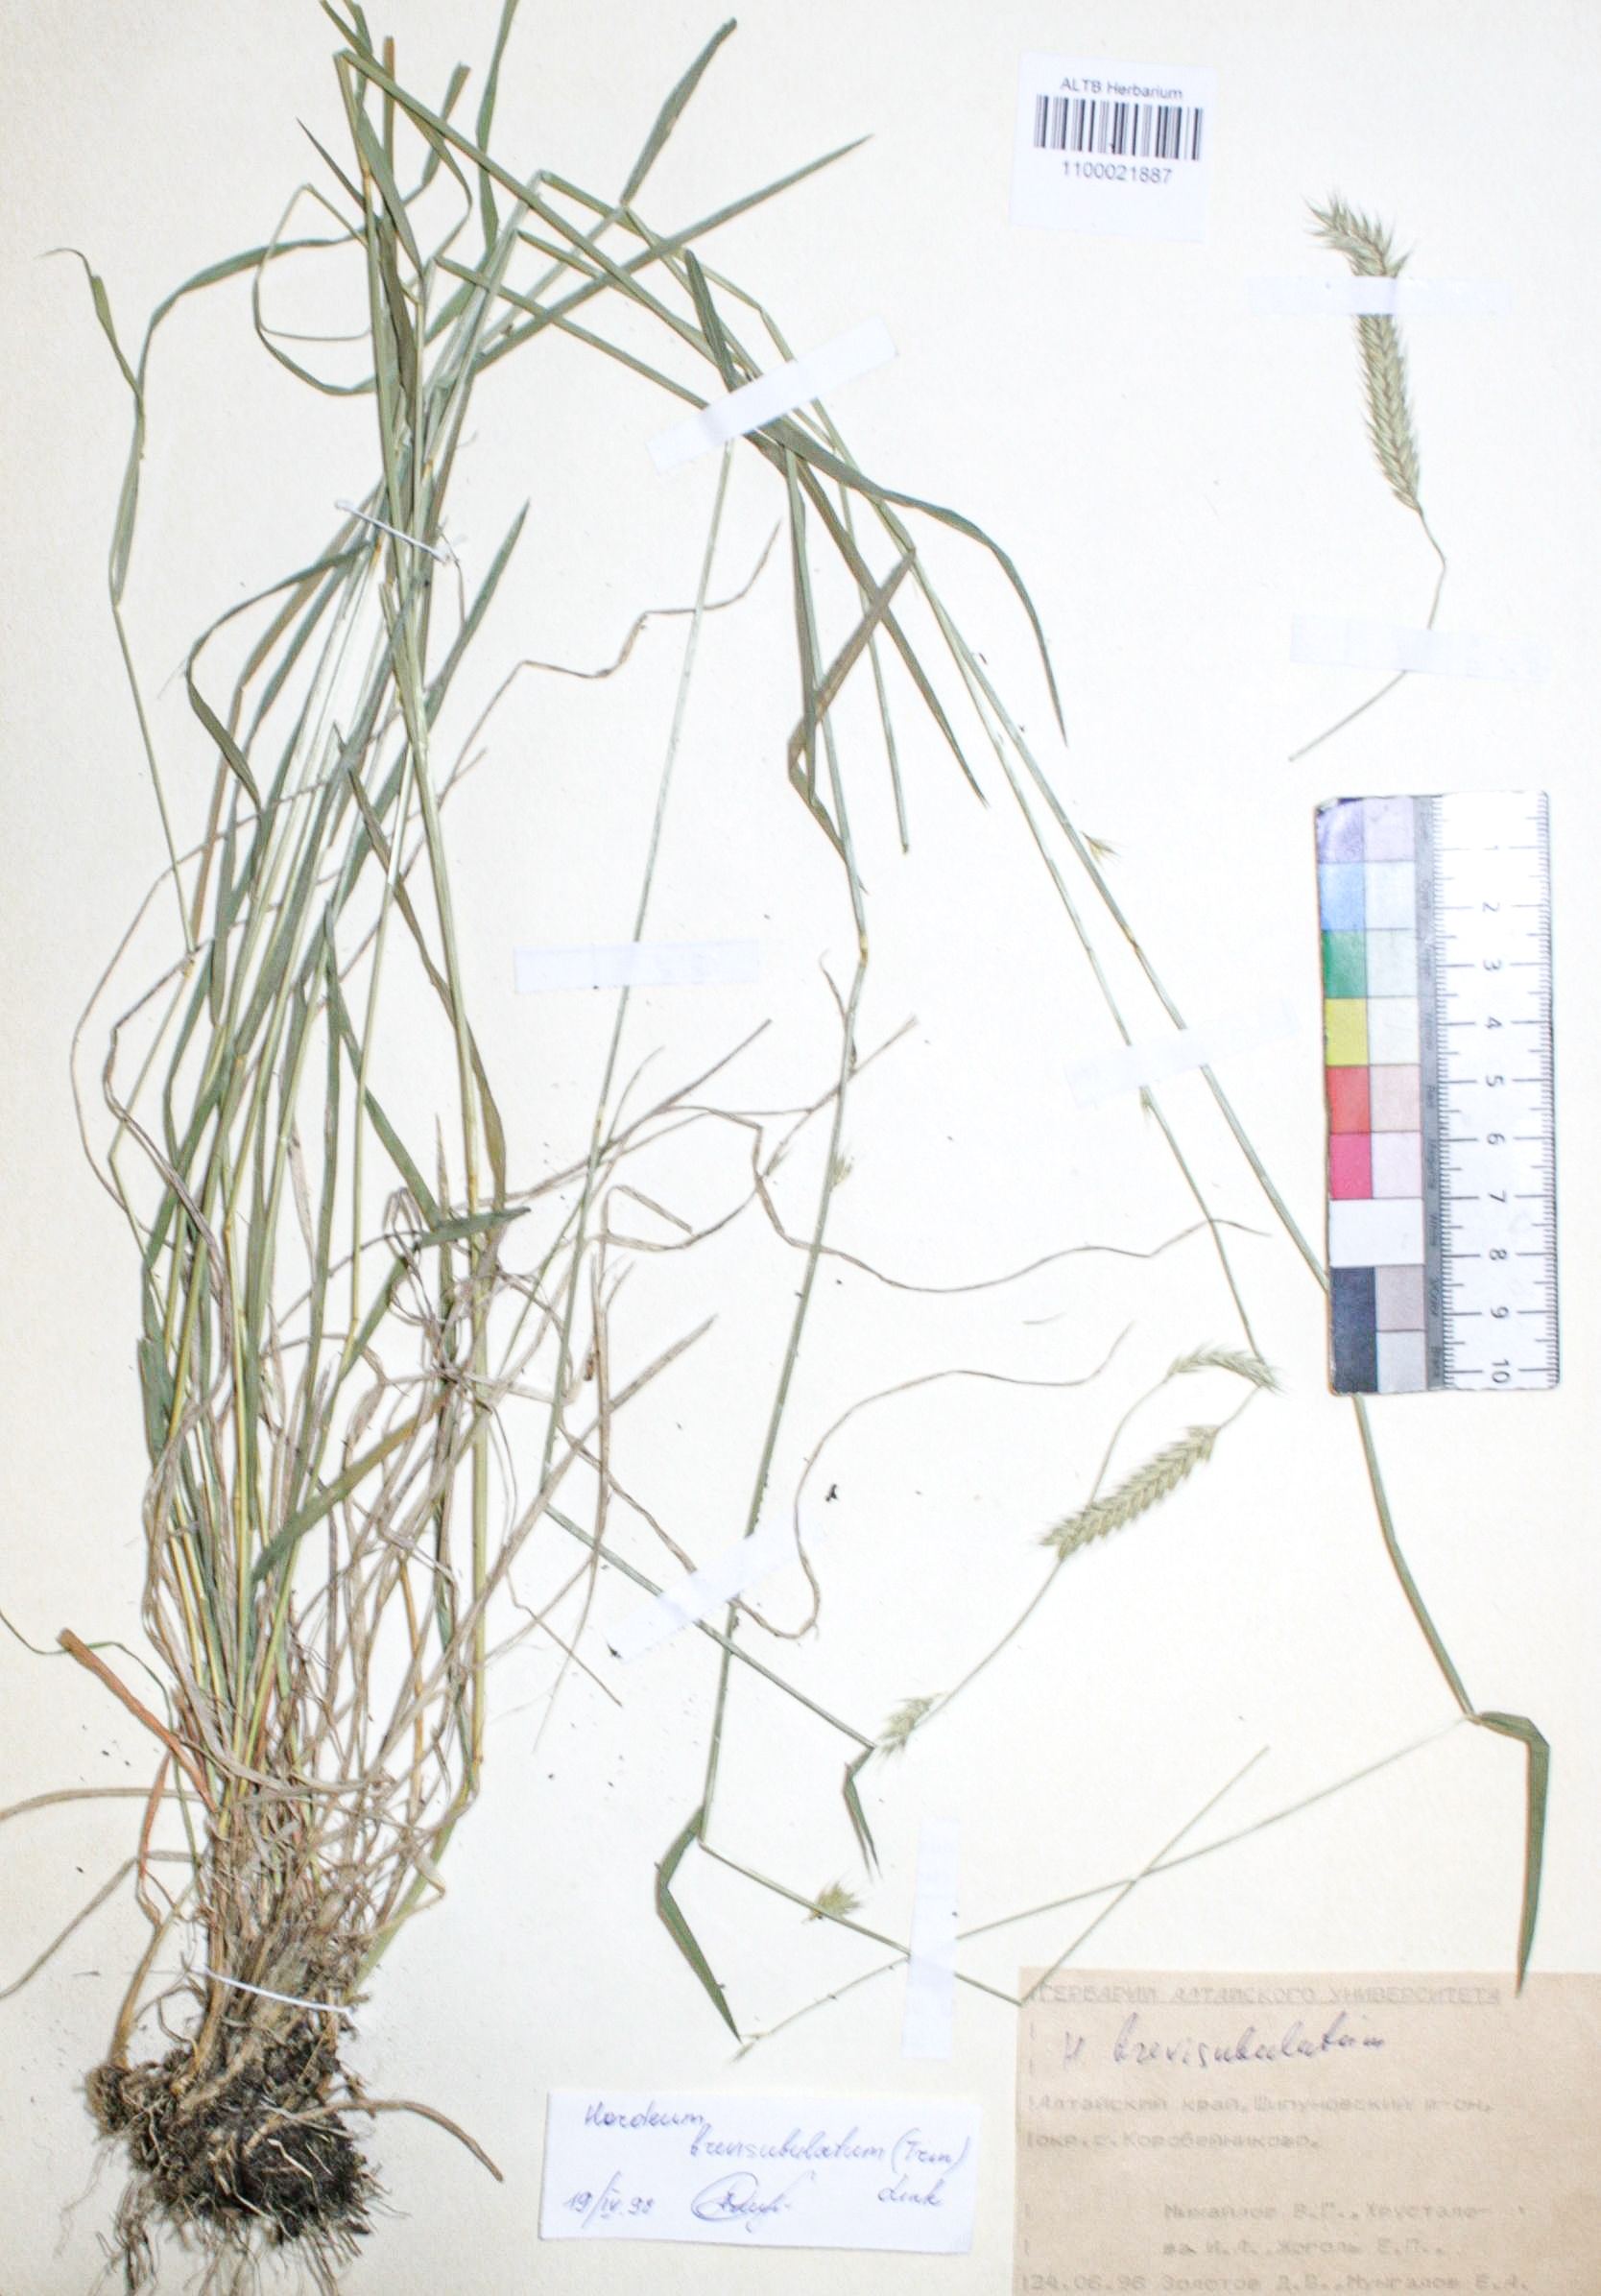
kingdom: Plantae
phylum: Tracheophyta
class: Liliopsida
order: Poales
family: Poaceae
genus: Hordeum
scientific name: Hordeum brevisubulatum
